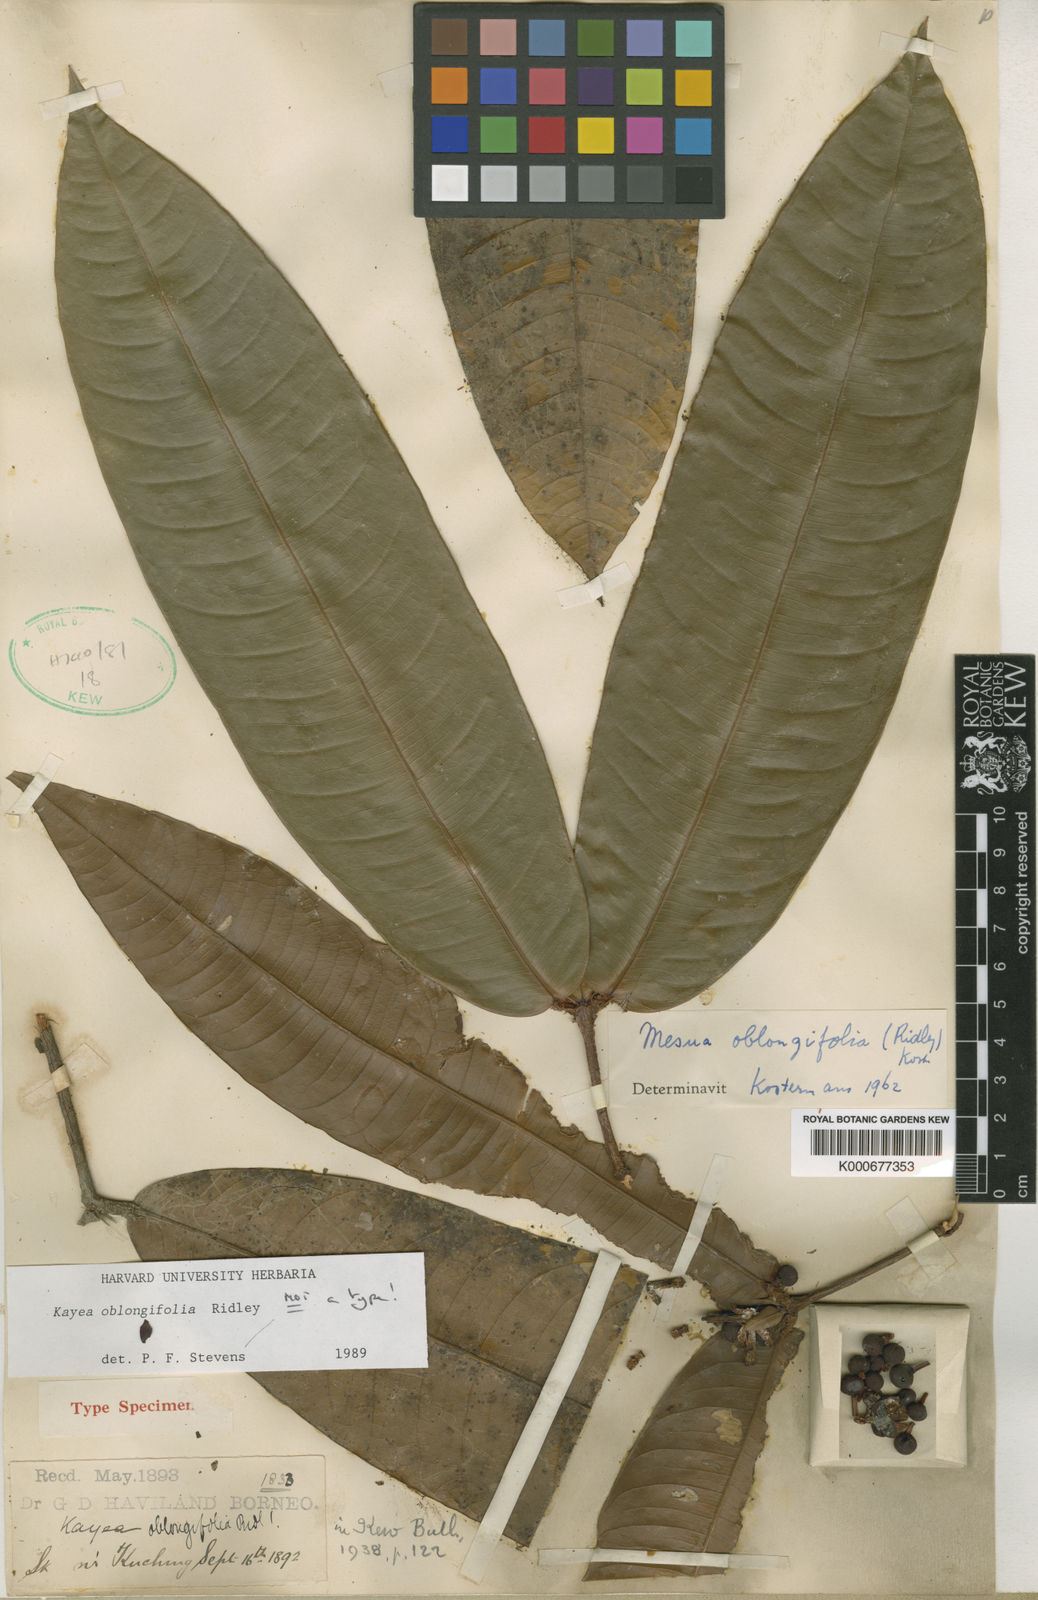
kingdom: Plantae
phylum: Tracheophyta
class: Magnoliopsida
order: Malpighiales
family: Calophyllaceae
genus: Kayea
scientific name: Kayea oblongifolia
